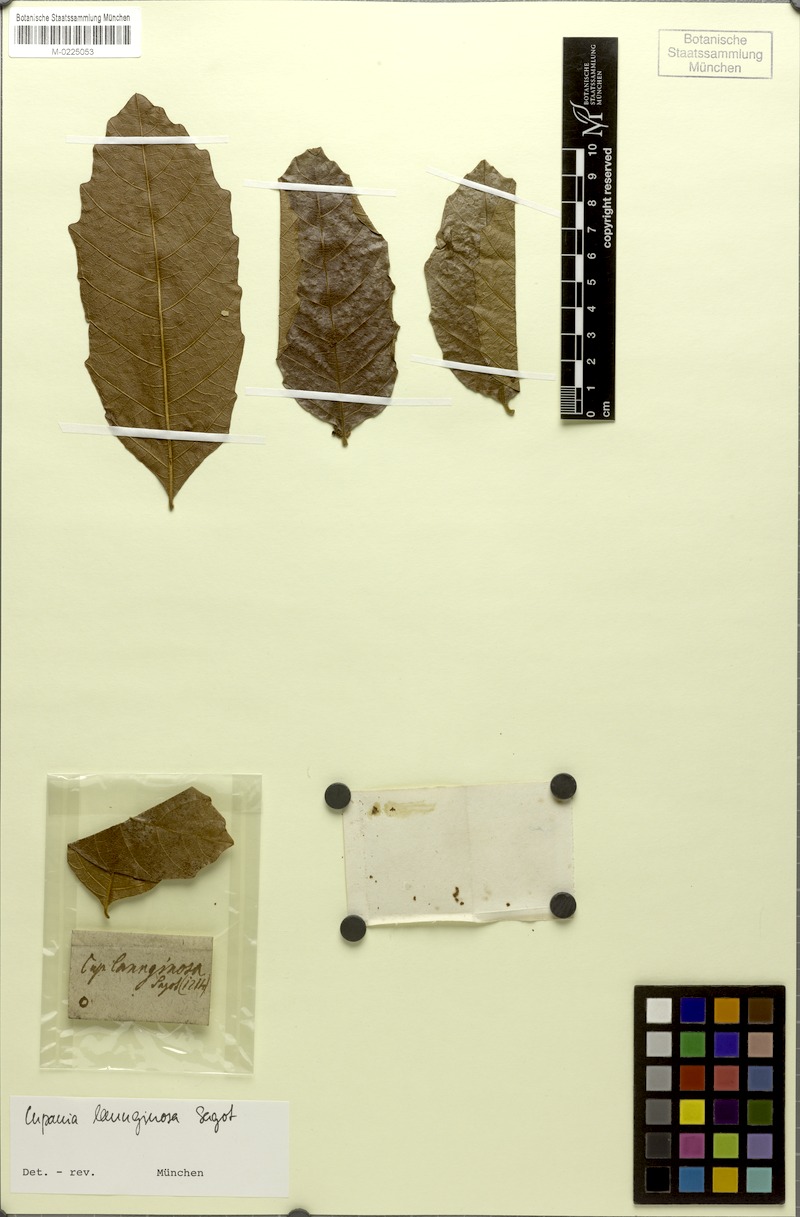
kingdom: Plantae
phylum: Tracheophyta
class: Magnoliopsida
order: Sapindales
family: Sapindaceae
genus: Cupania
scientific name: Cupania hirsuta
